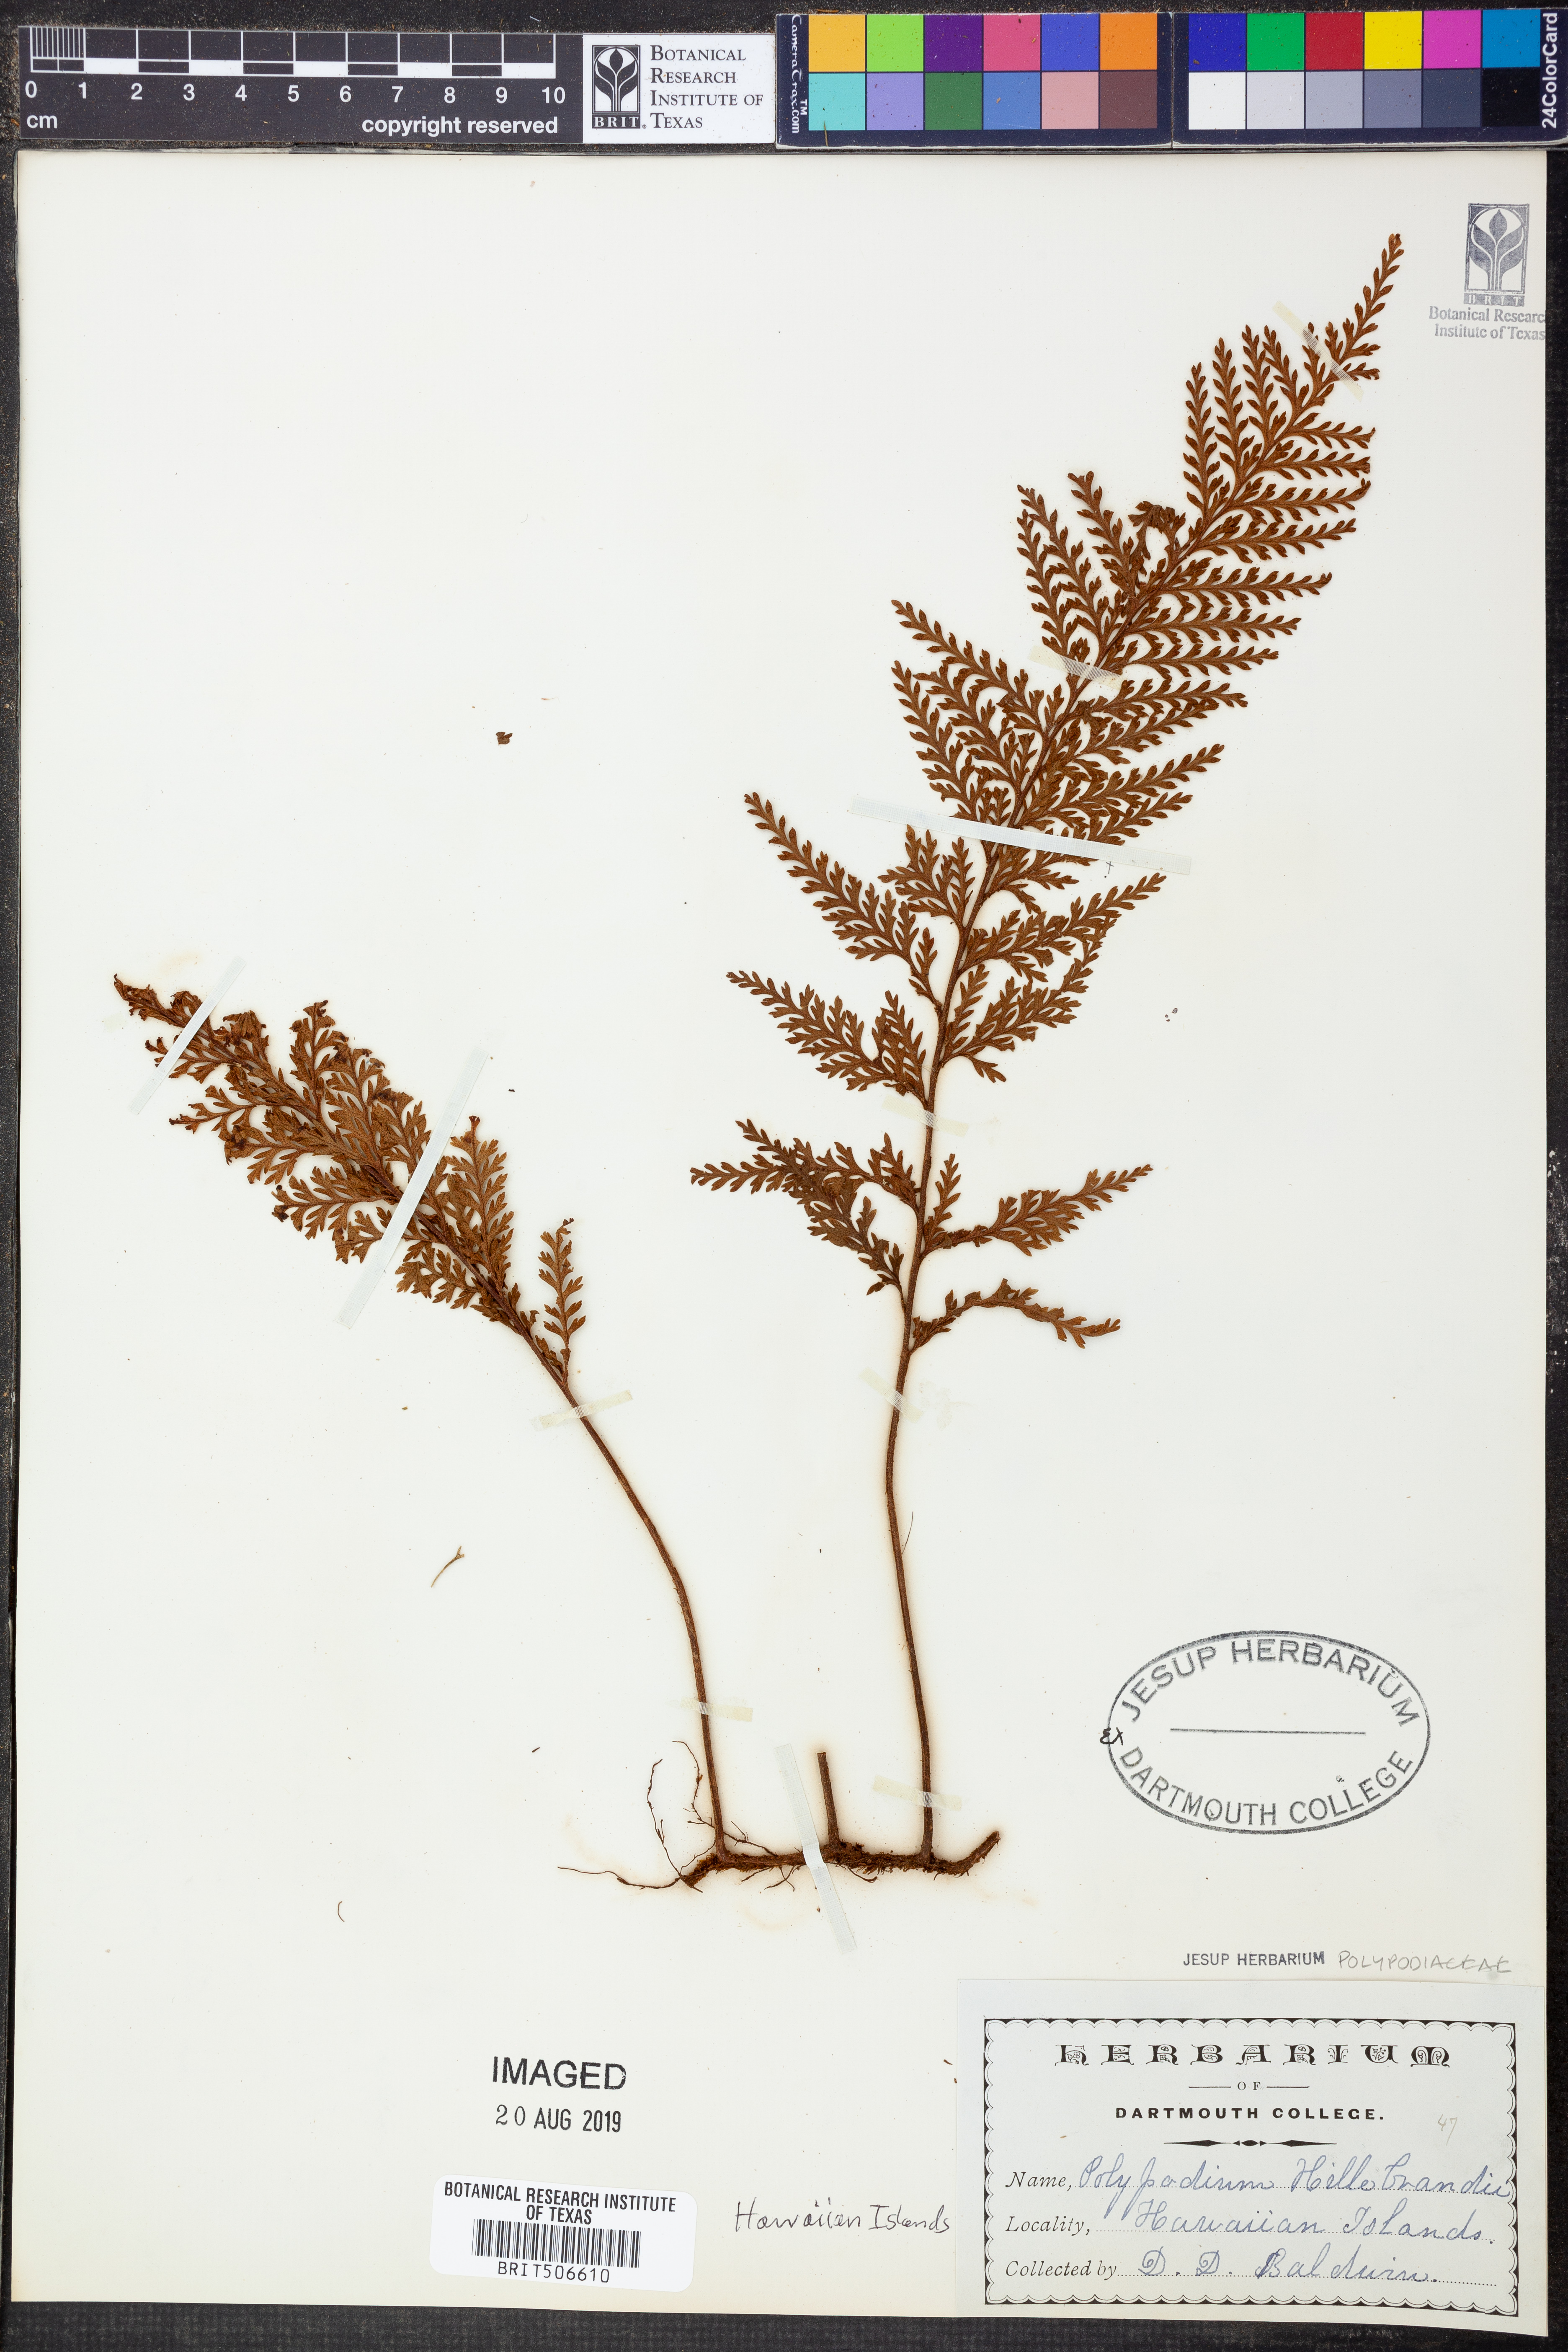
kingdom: Plantae
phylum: Tracheophyta
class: Polypodiopsida
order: Polypodiales
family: Polypodiaceae
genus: Adenophorus
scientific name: Adenophorus tripinnatifidus
